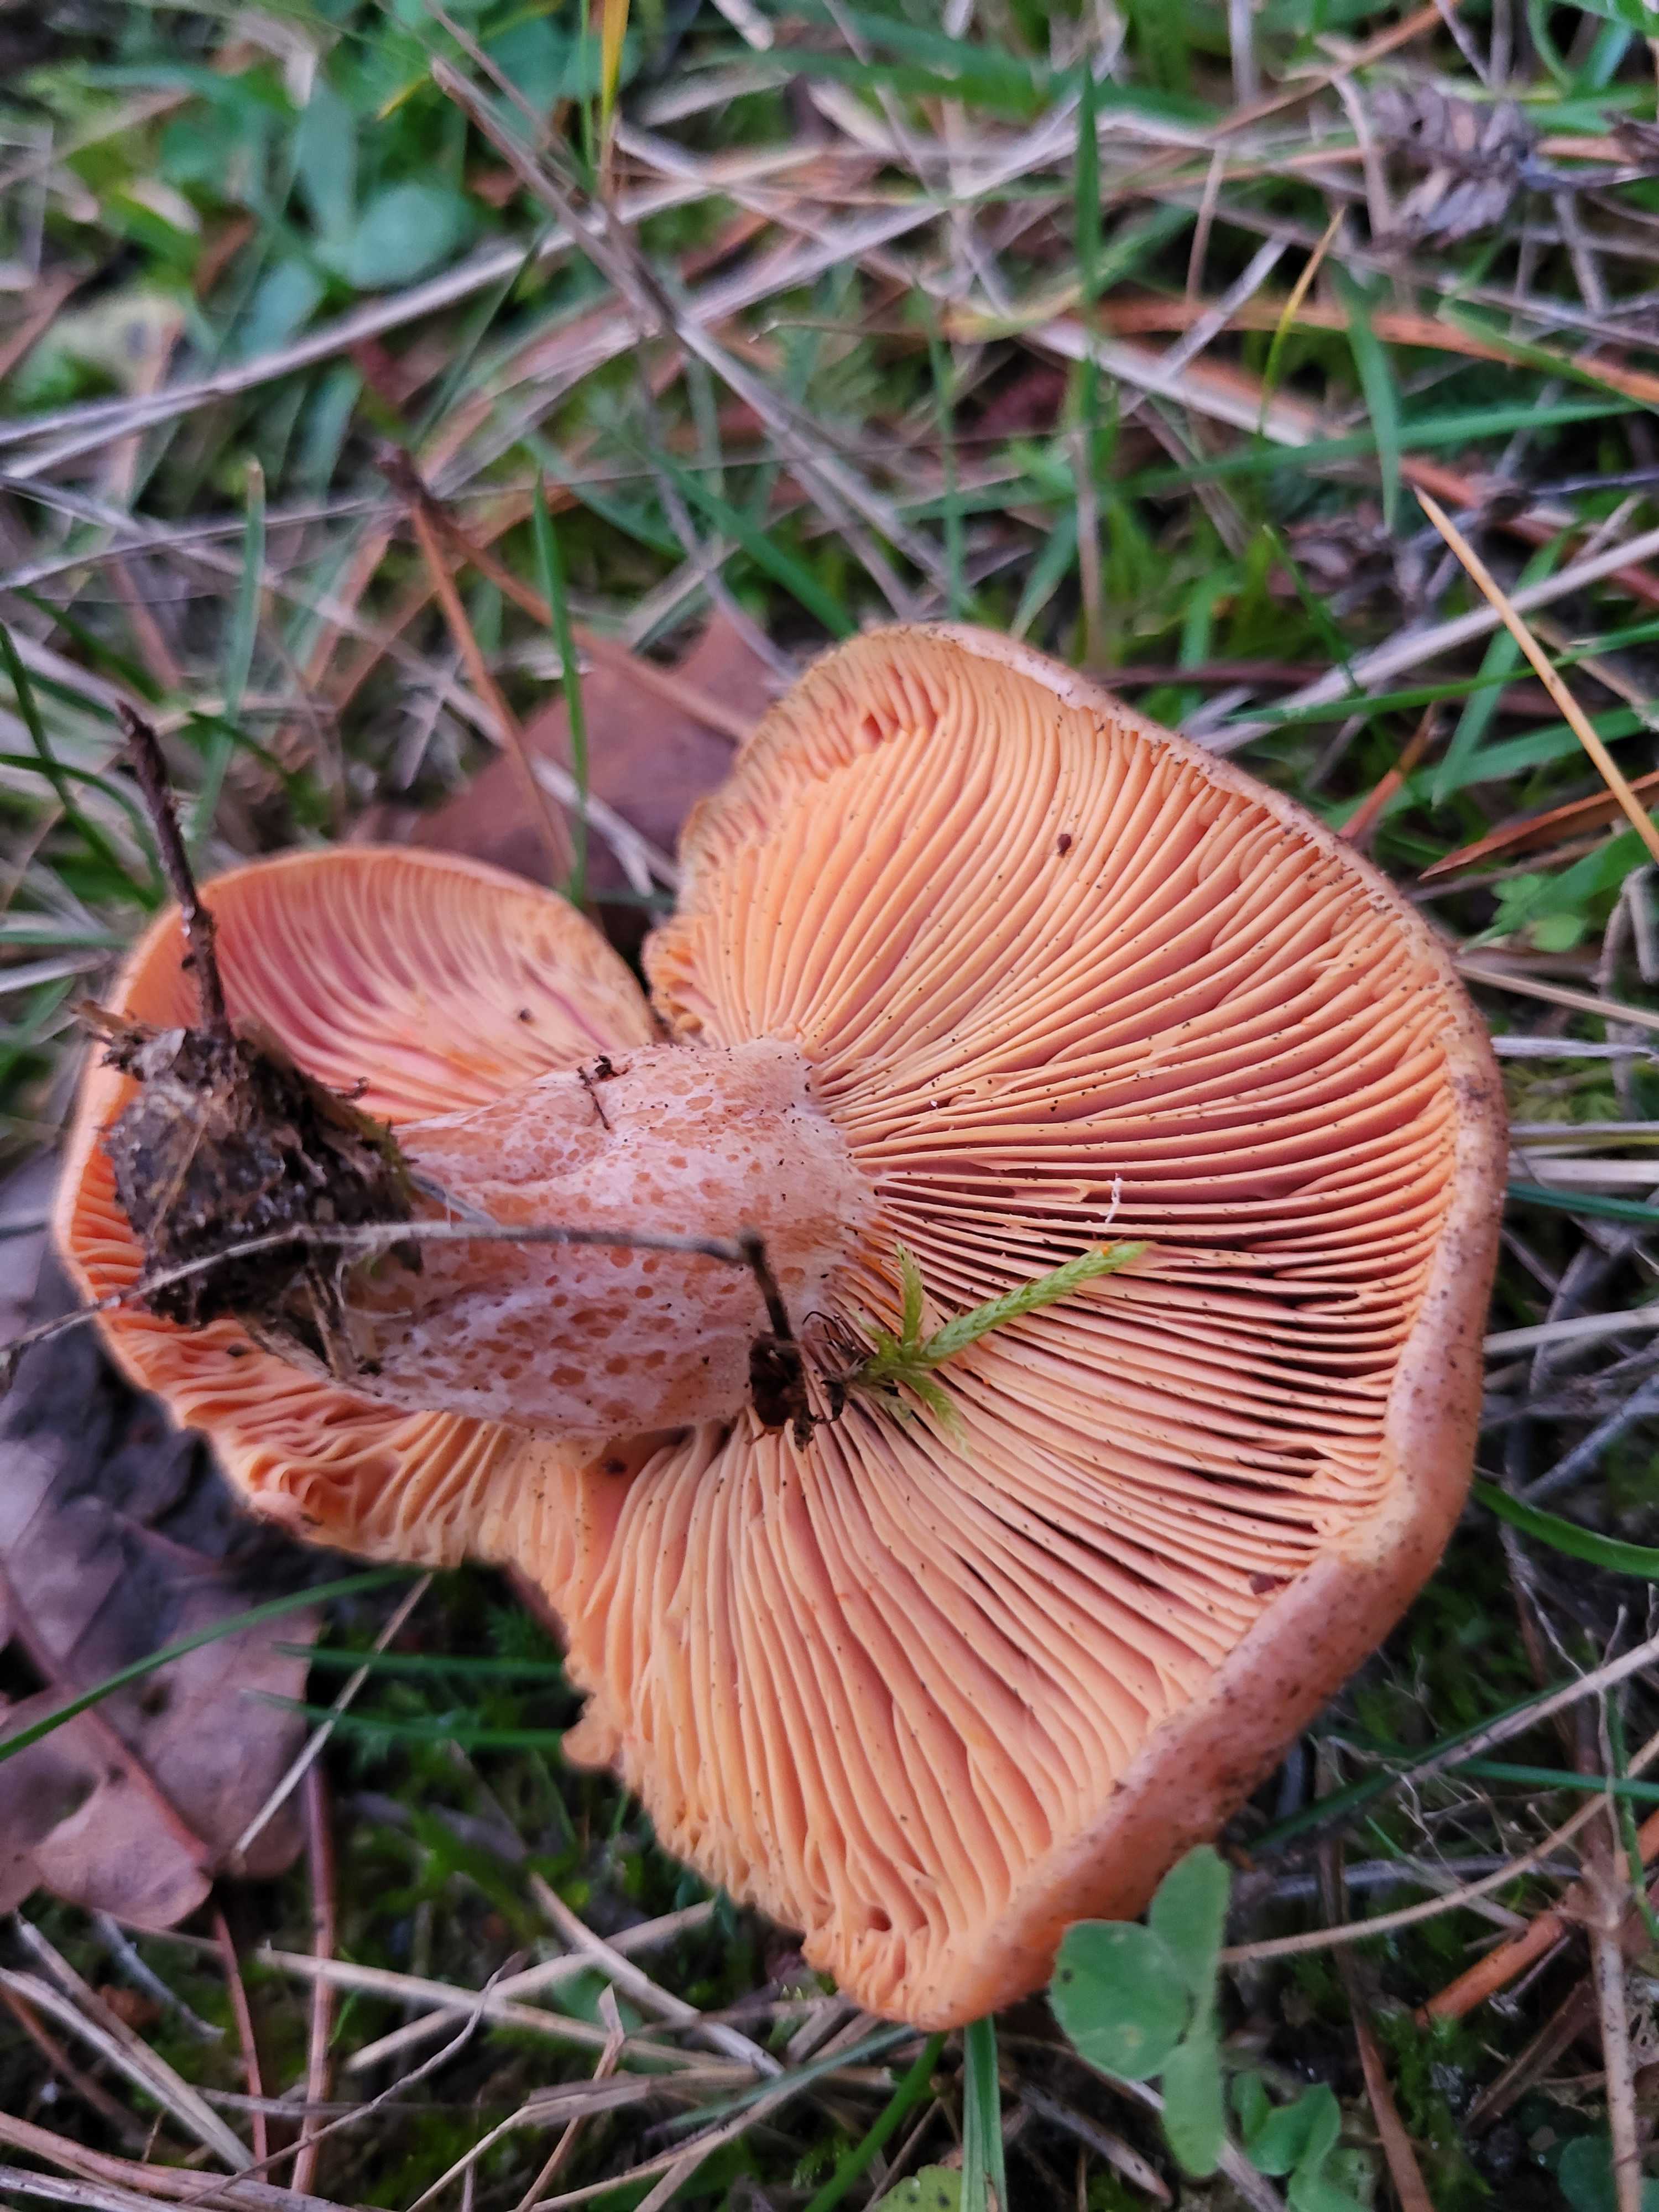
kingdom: Fungi
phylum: Basidiomycota
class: Agaricomycetes
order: Russulales
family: Russulaceae
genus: Lactarius
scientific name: Lactarius deliciosus
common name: velsmagende mælkehat
